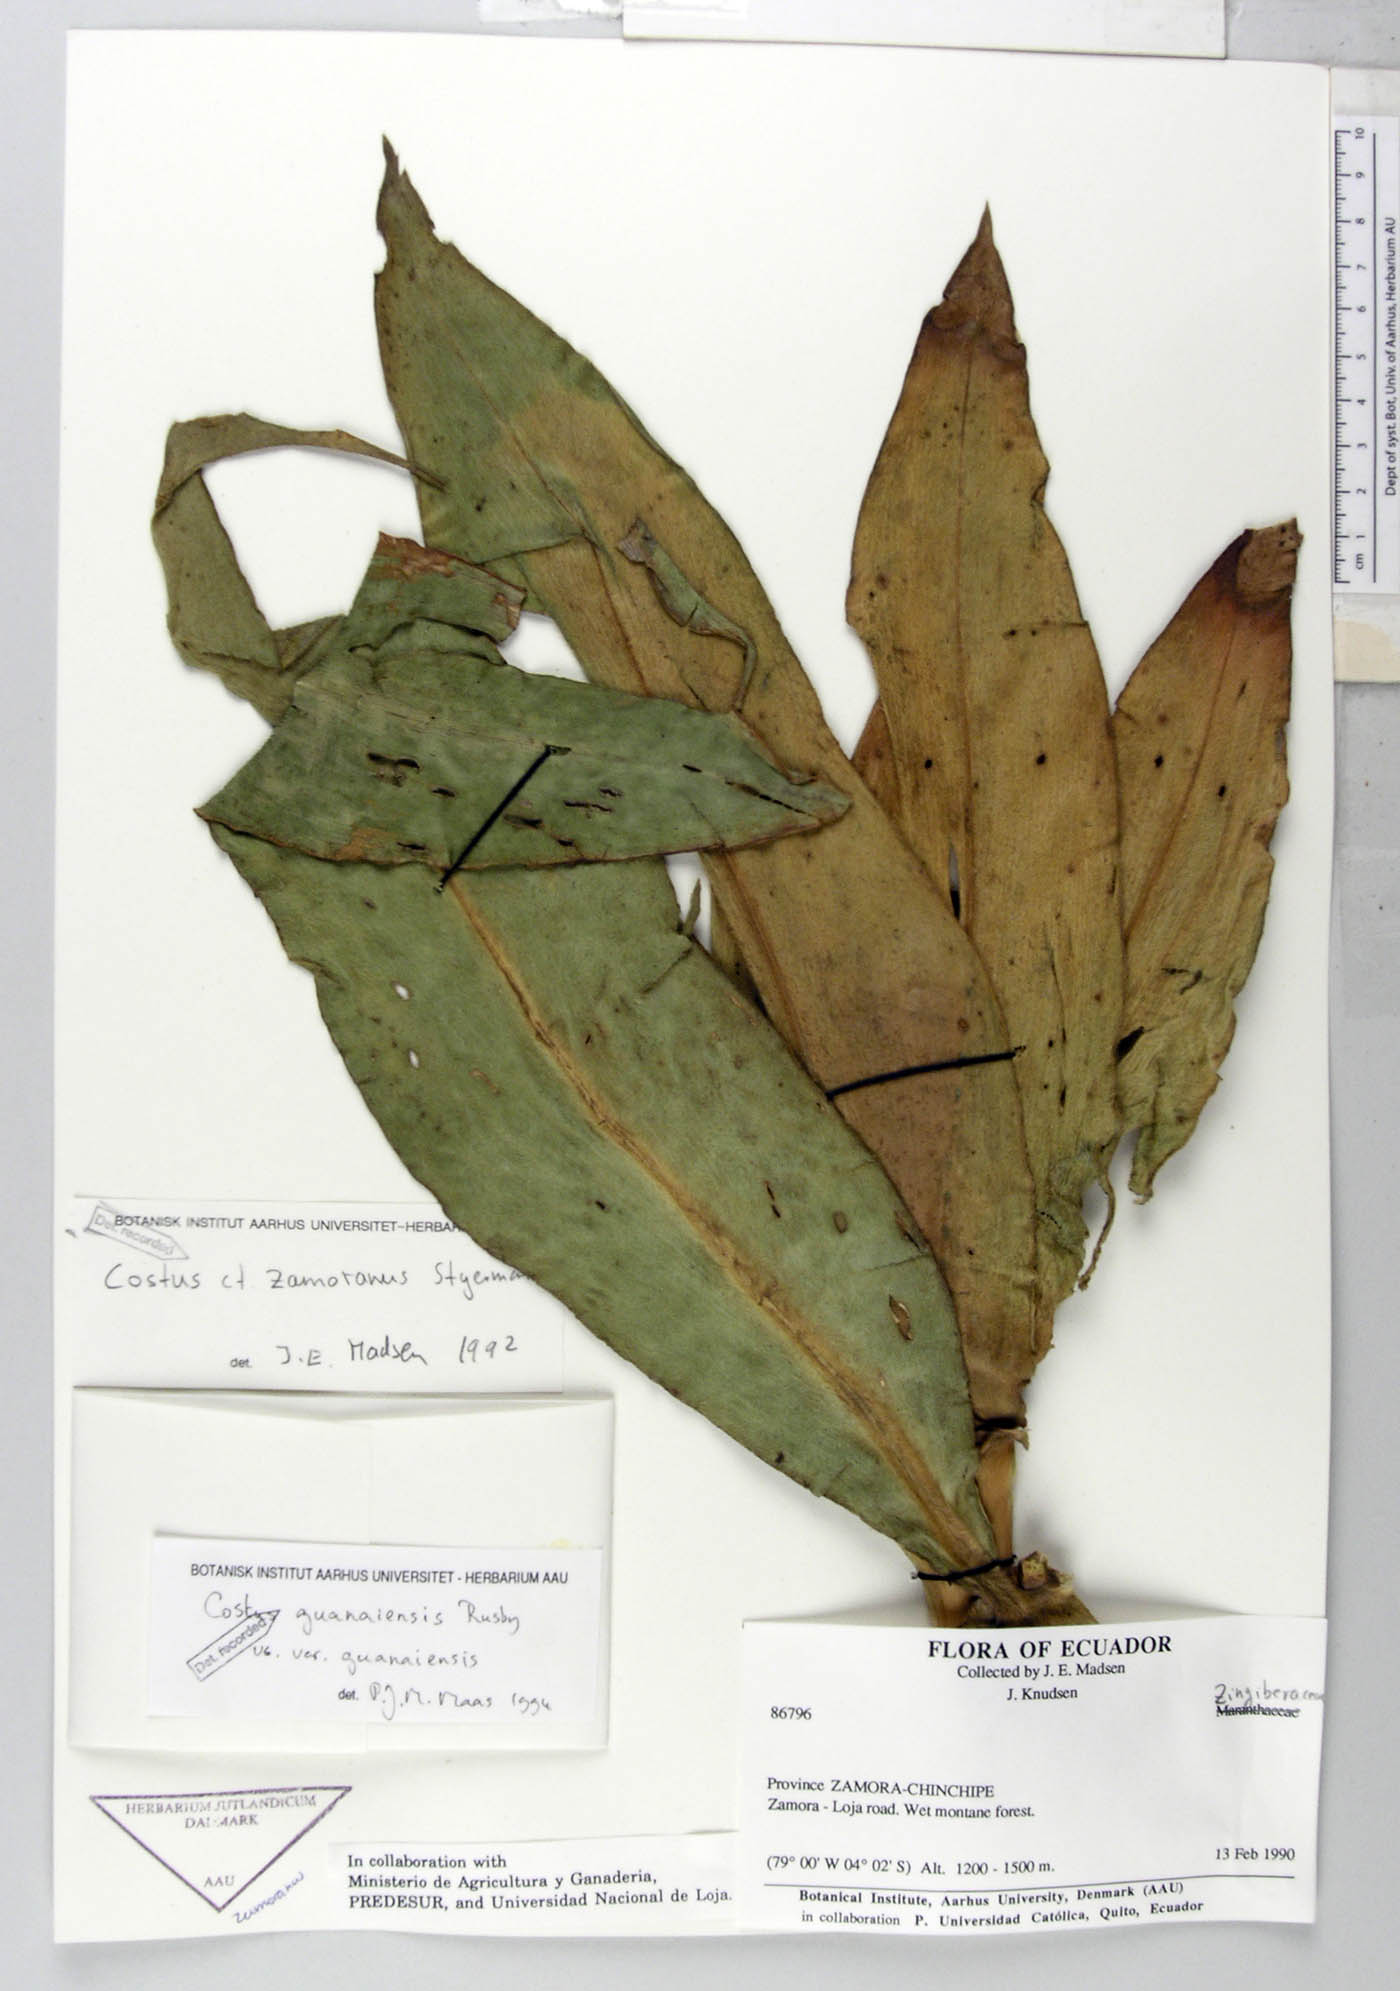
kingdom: Plantae
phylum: Tracheophyta
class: Liliopsida
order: Zingiberales
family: Costaceae
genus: Costus
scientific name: Costus guanaiensis
